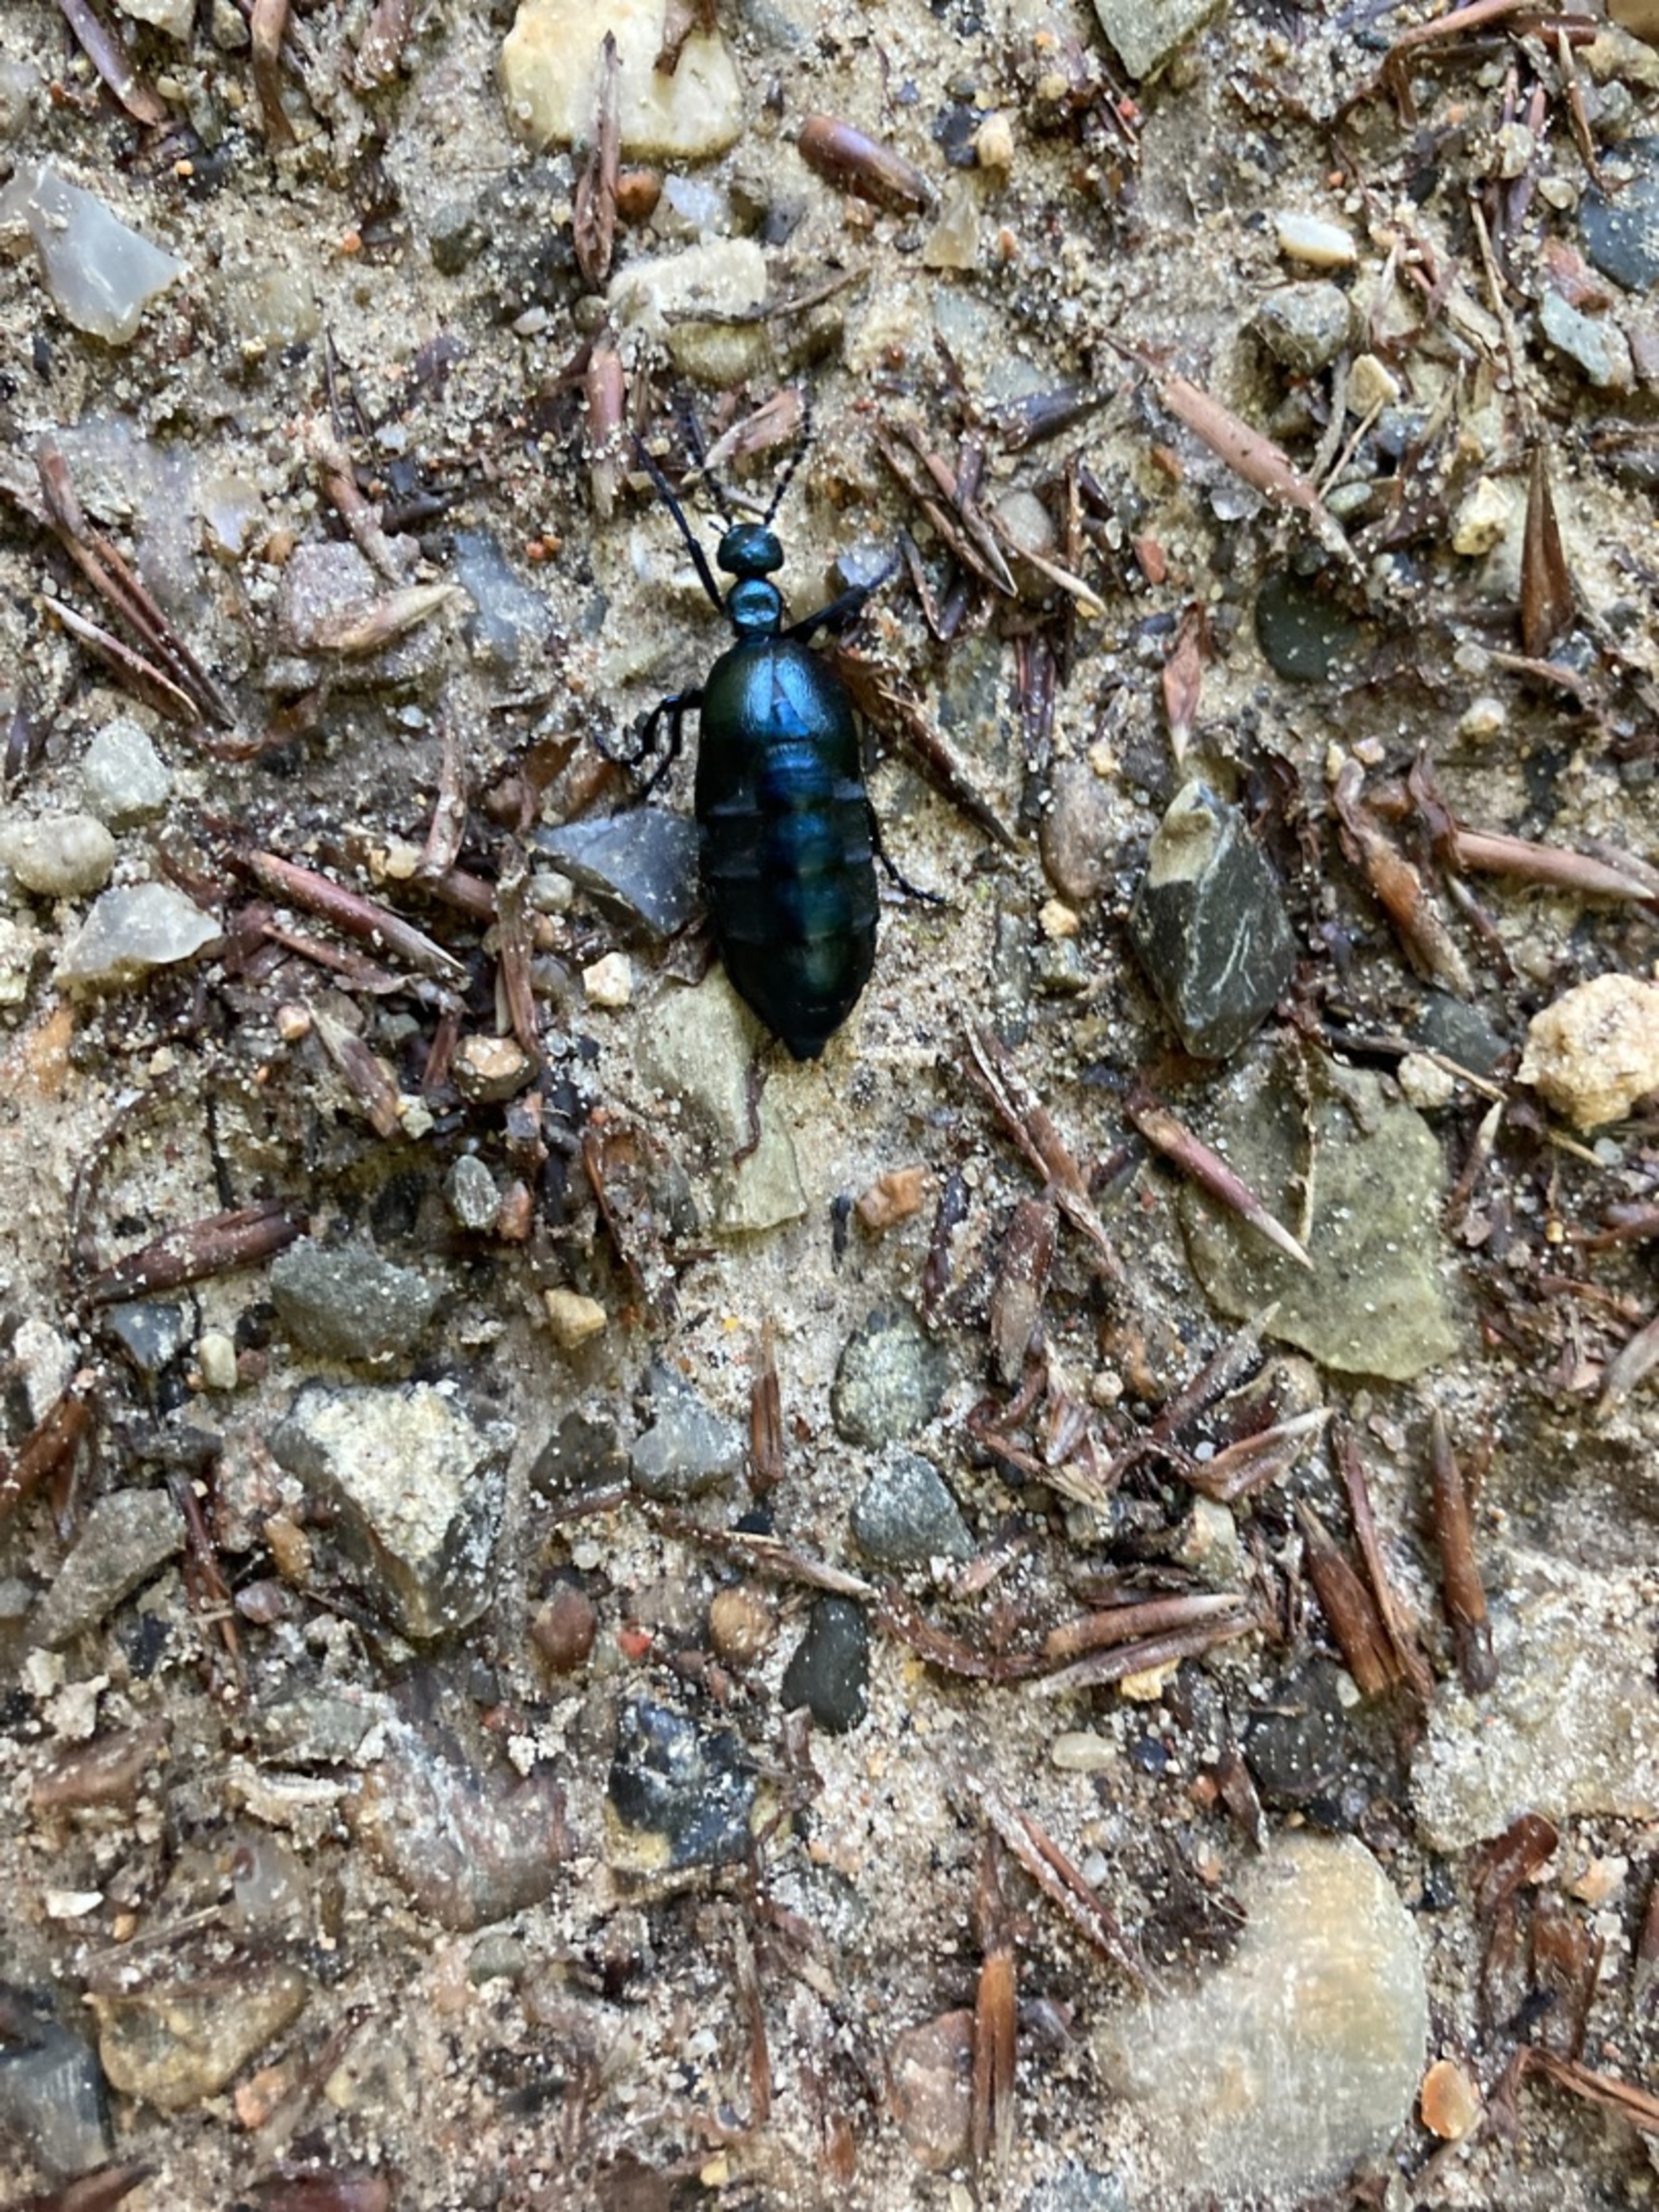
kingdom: Animalia
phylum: Arthropoda
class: Insecta
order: Coleoptera
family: Meloidae
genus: Meloe
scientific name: Meloe violaceus
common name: Blå oliebille
